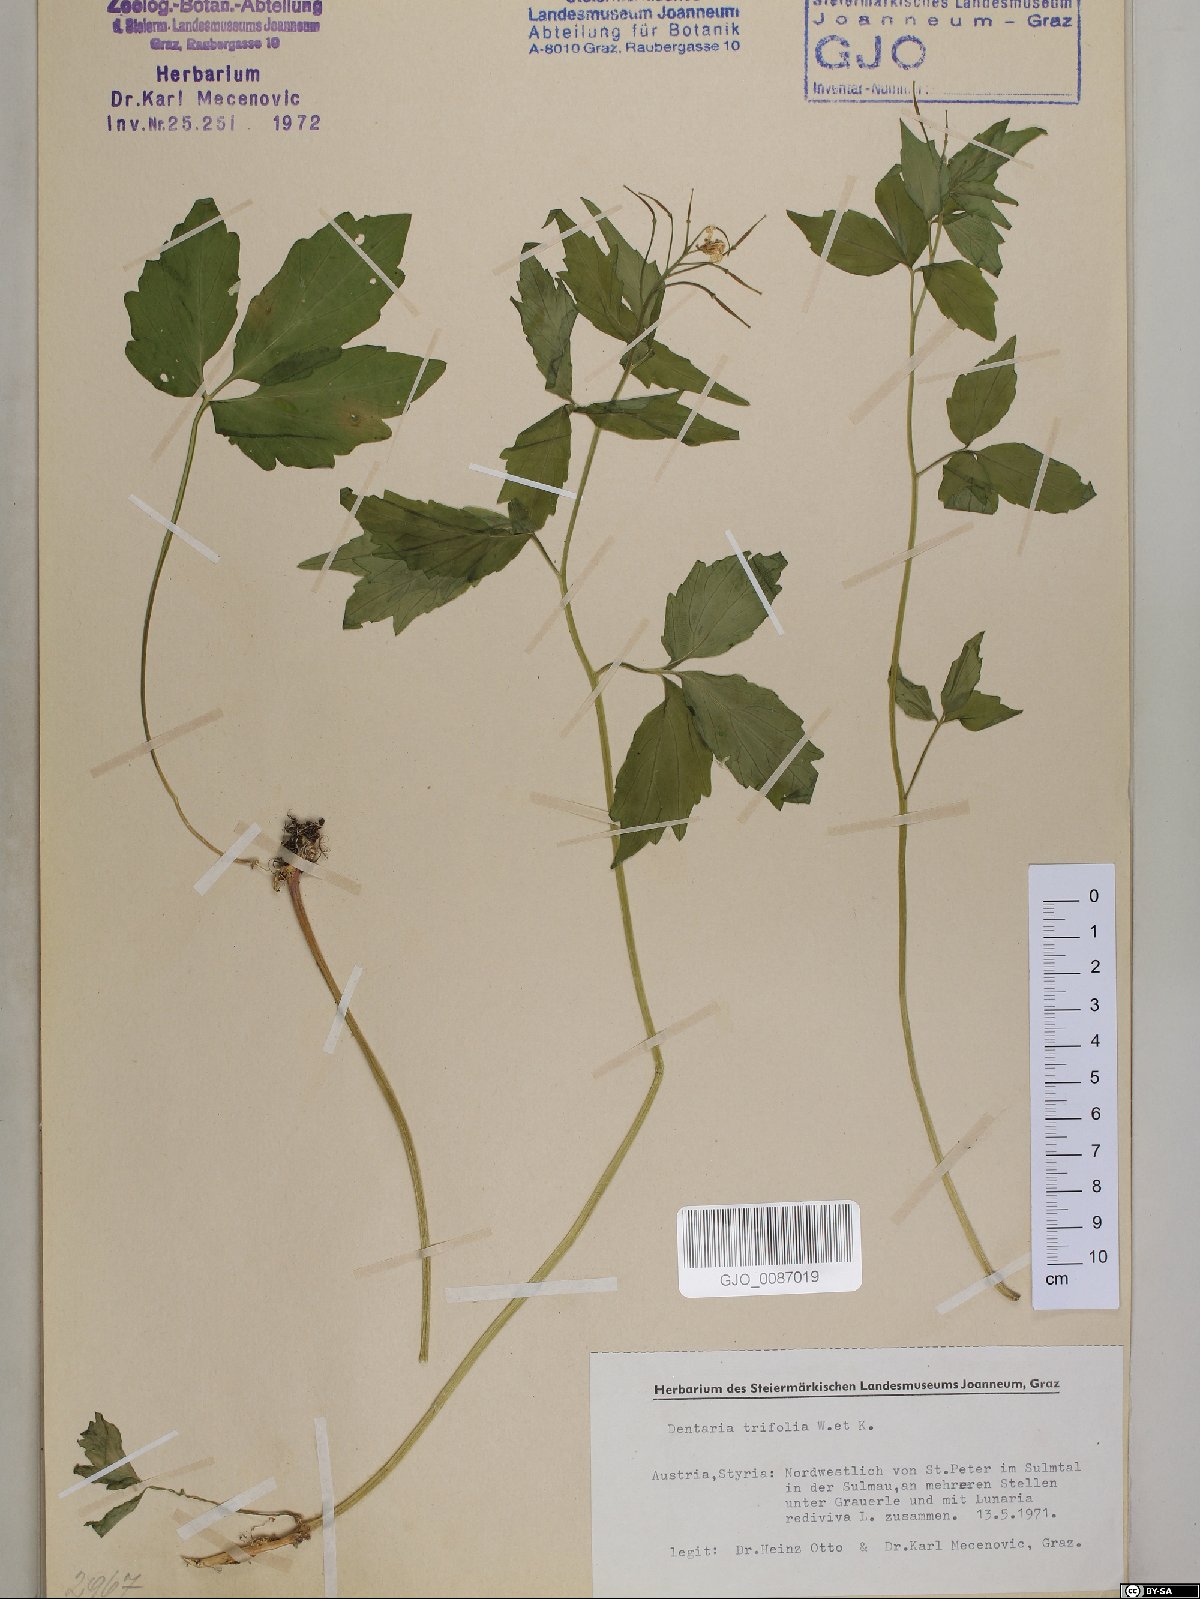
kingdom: Plantae
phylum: Tracheophyta
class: Magnoliopsida
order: Brassicales
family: Brassicaceae
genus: Cardamine
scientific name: Cardamine waldsteinii
